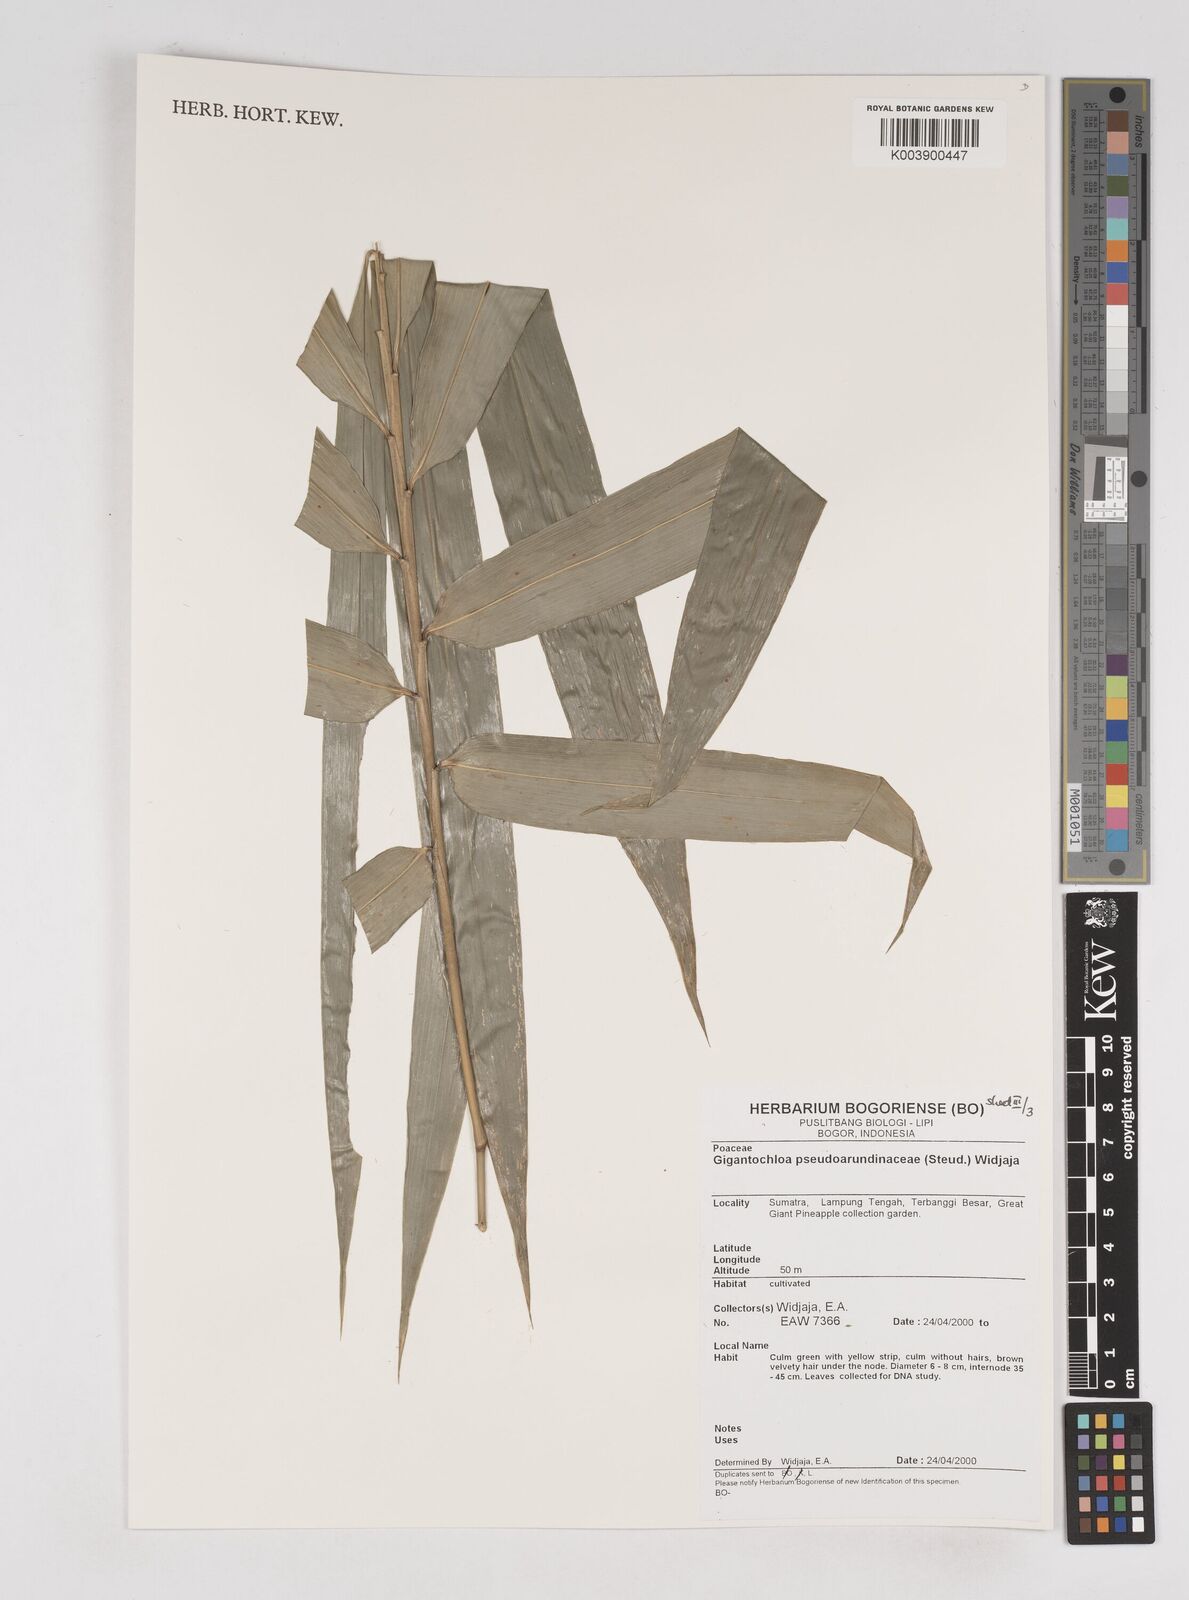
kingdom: Plantae
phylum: Tracheophyta
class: Liliopsida
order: Poales
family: Poaceae
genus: Gigantochloa
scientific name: Gigantochloa verticillata
